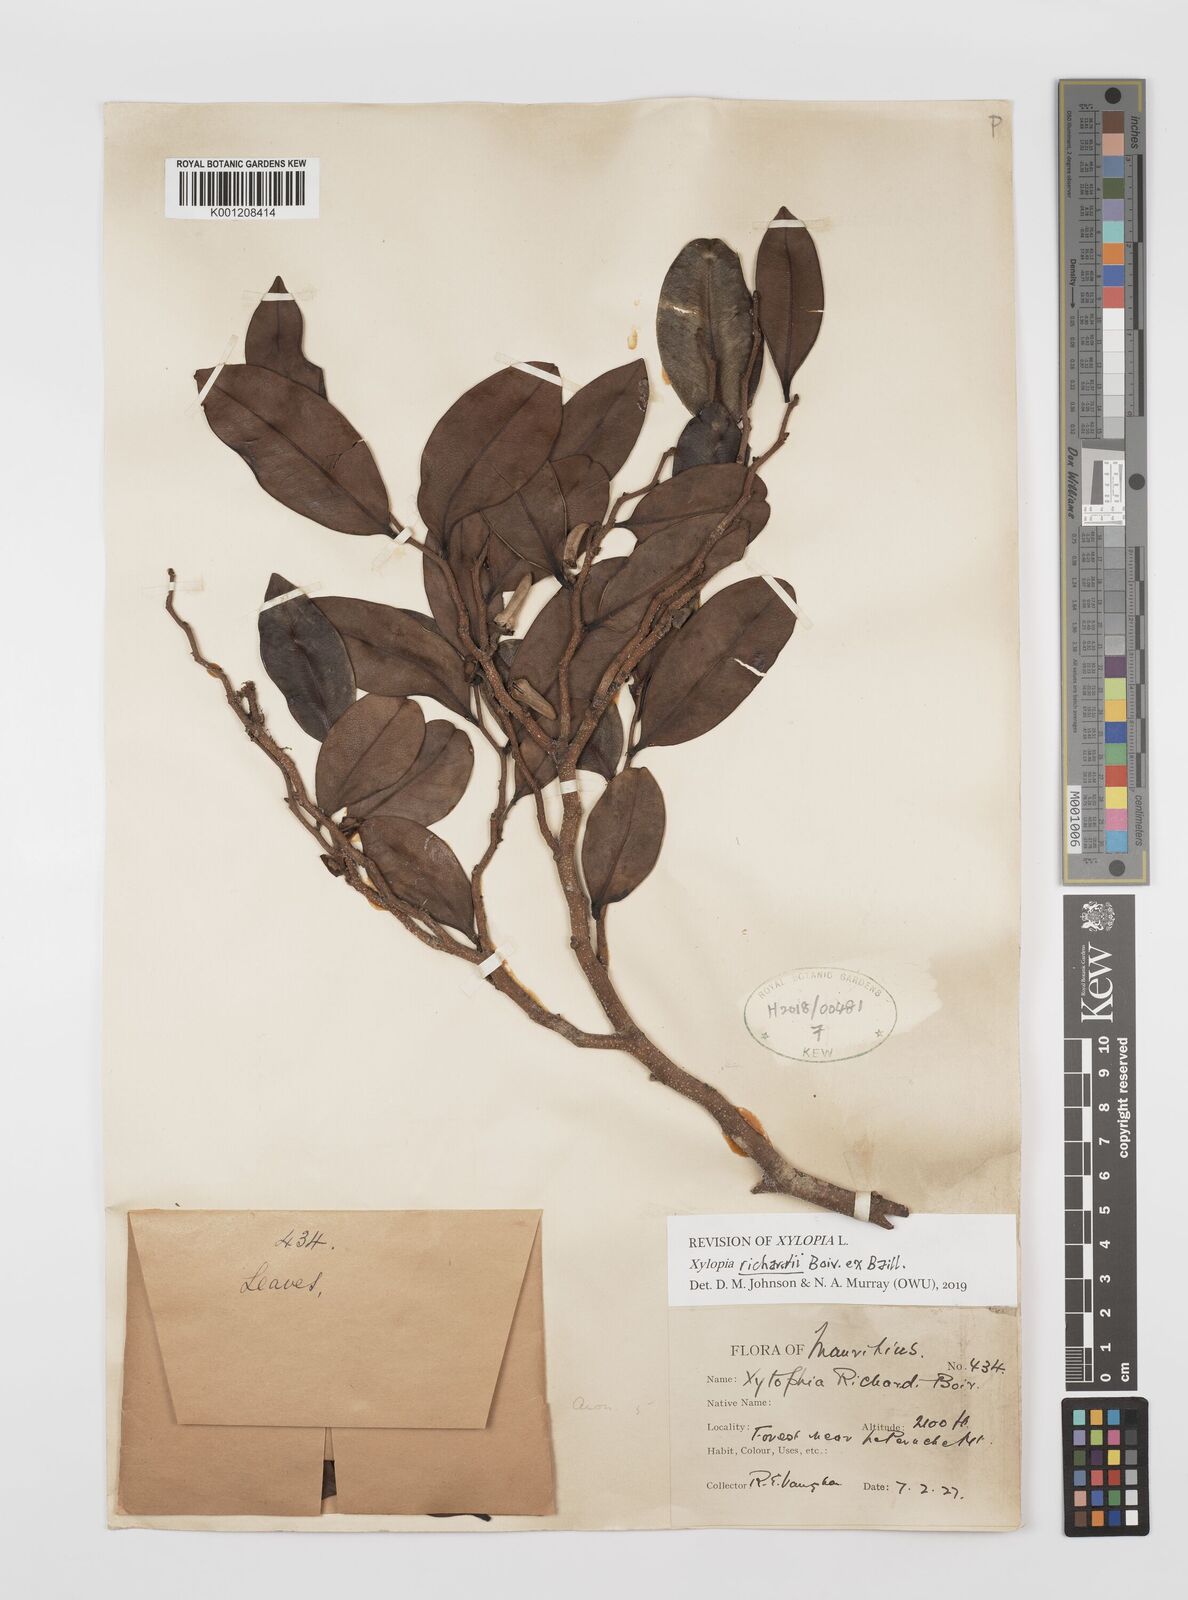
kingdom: Plantae
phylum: Tracheophyta
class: Magnoliopsida
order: Magnoliales
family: Annonaceae
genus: Xylopia
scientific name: Xylopia richardii
